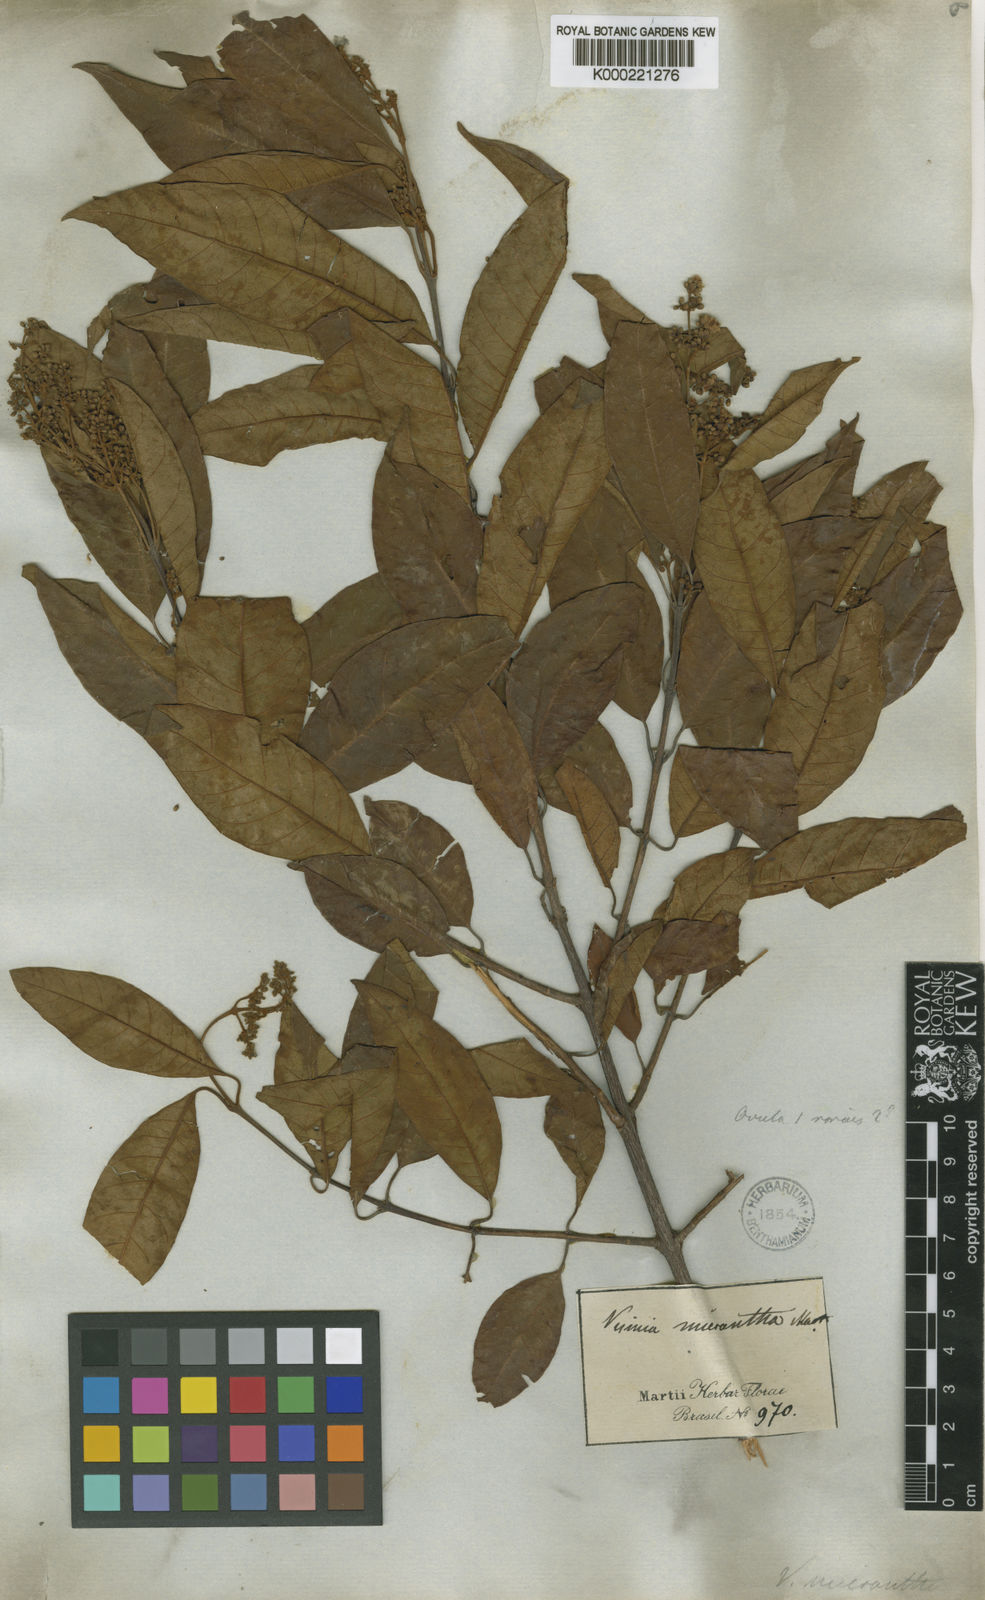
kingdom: Plantae
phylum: Tracheophyta
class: Magnoliopsida
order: Malpighiales
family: Hypericaceae
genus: Vismia
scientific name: Vismia micrantha
